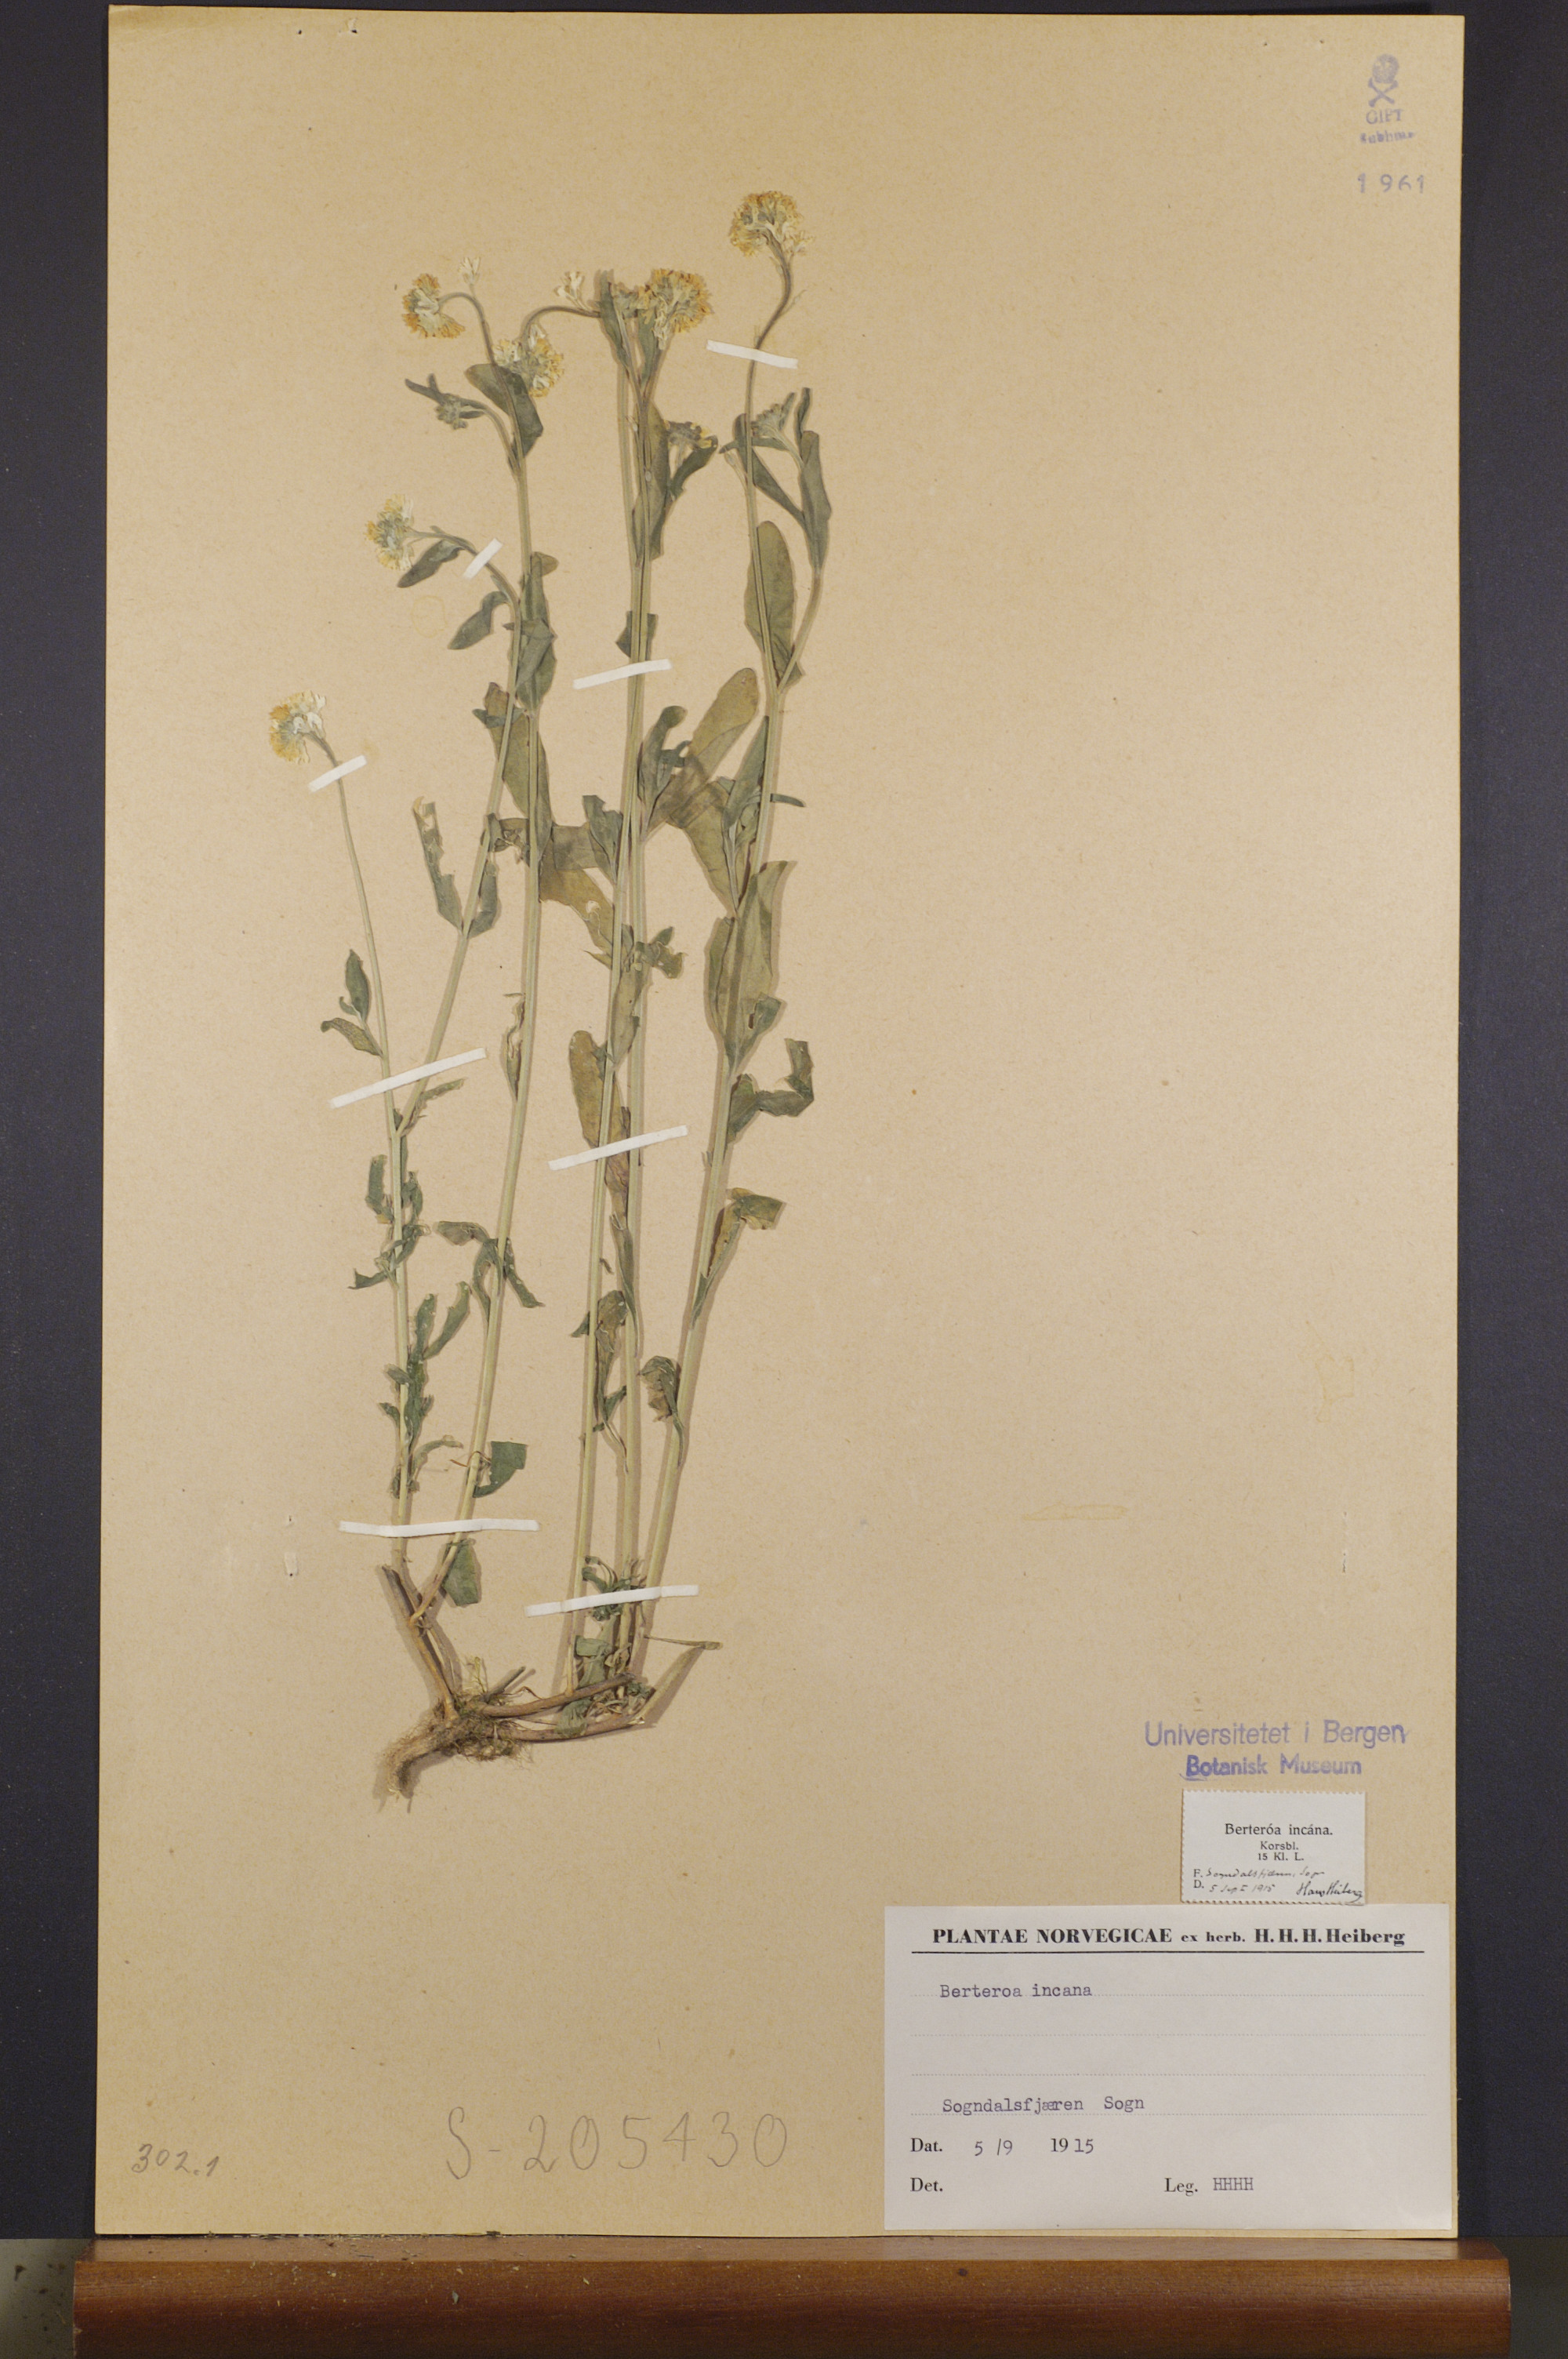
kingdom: Plantae
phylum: Tracheophyta
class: Magnoliopsida
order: Brassicales
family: Brassicaceae
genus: Berteroa
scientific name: Berteroa incana
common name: Hoary alison
